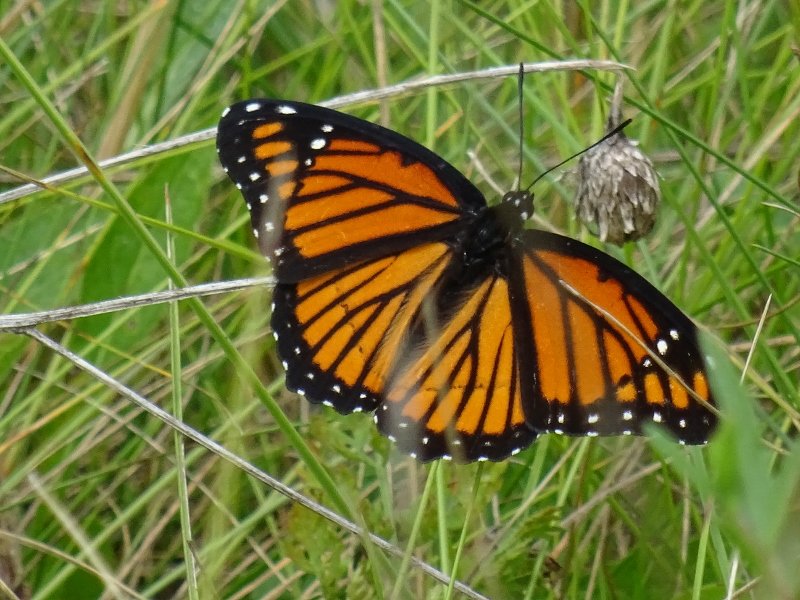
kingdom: Animalia
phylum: Arthropoda
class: Insecta
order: Lepidoptera
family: Nymphalidae
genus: Limenitis
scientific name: Limenitis archippus
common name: Viceroy
